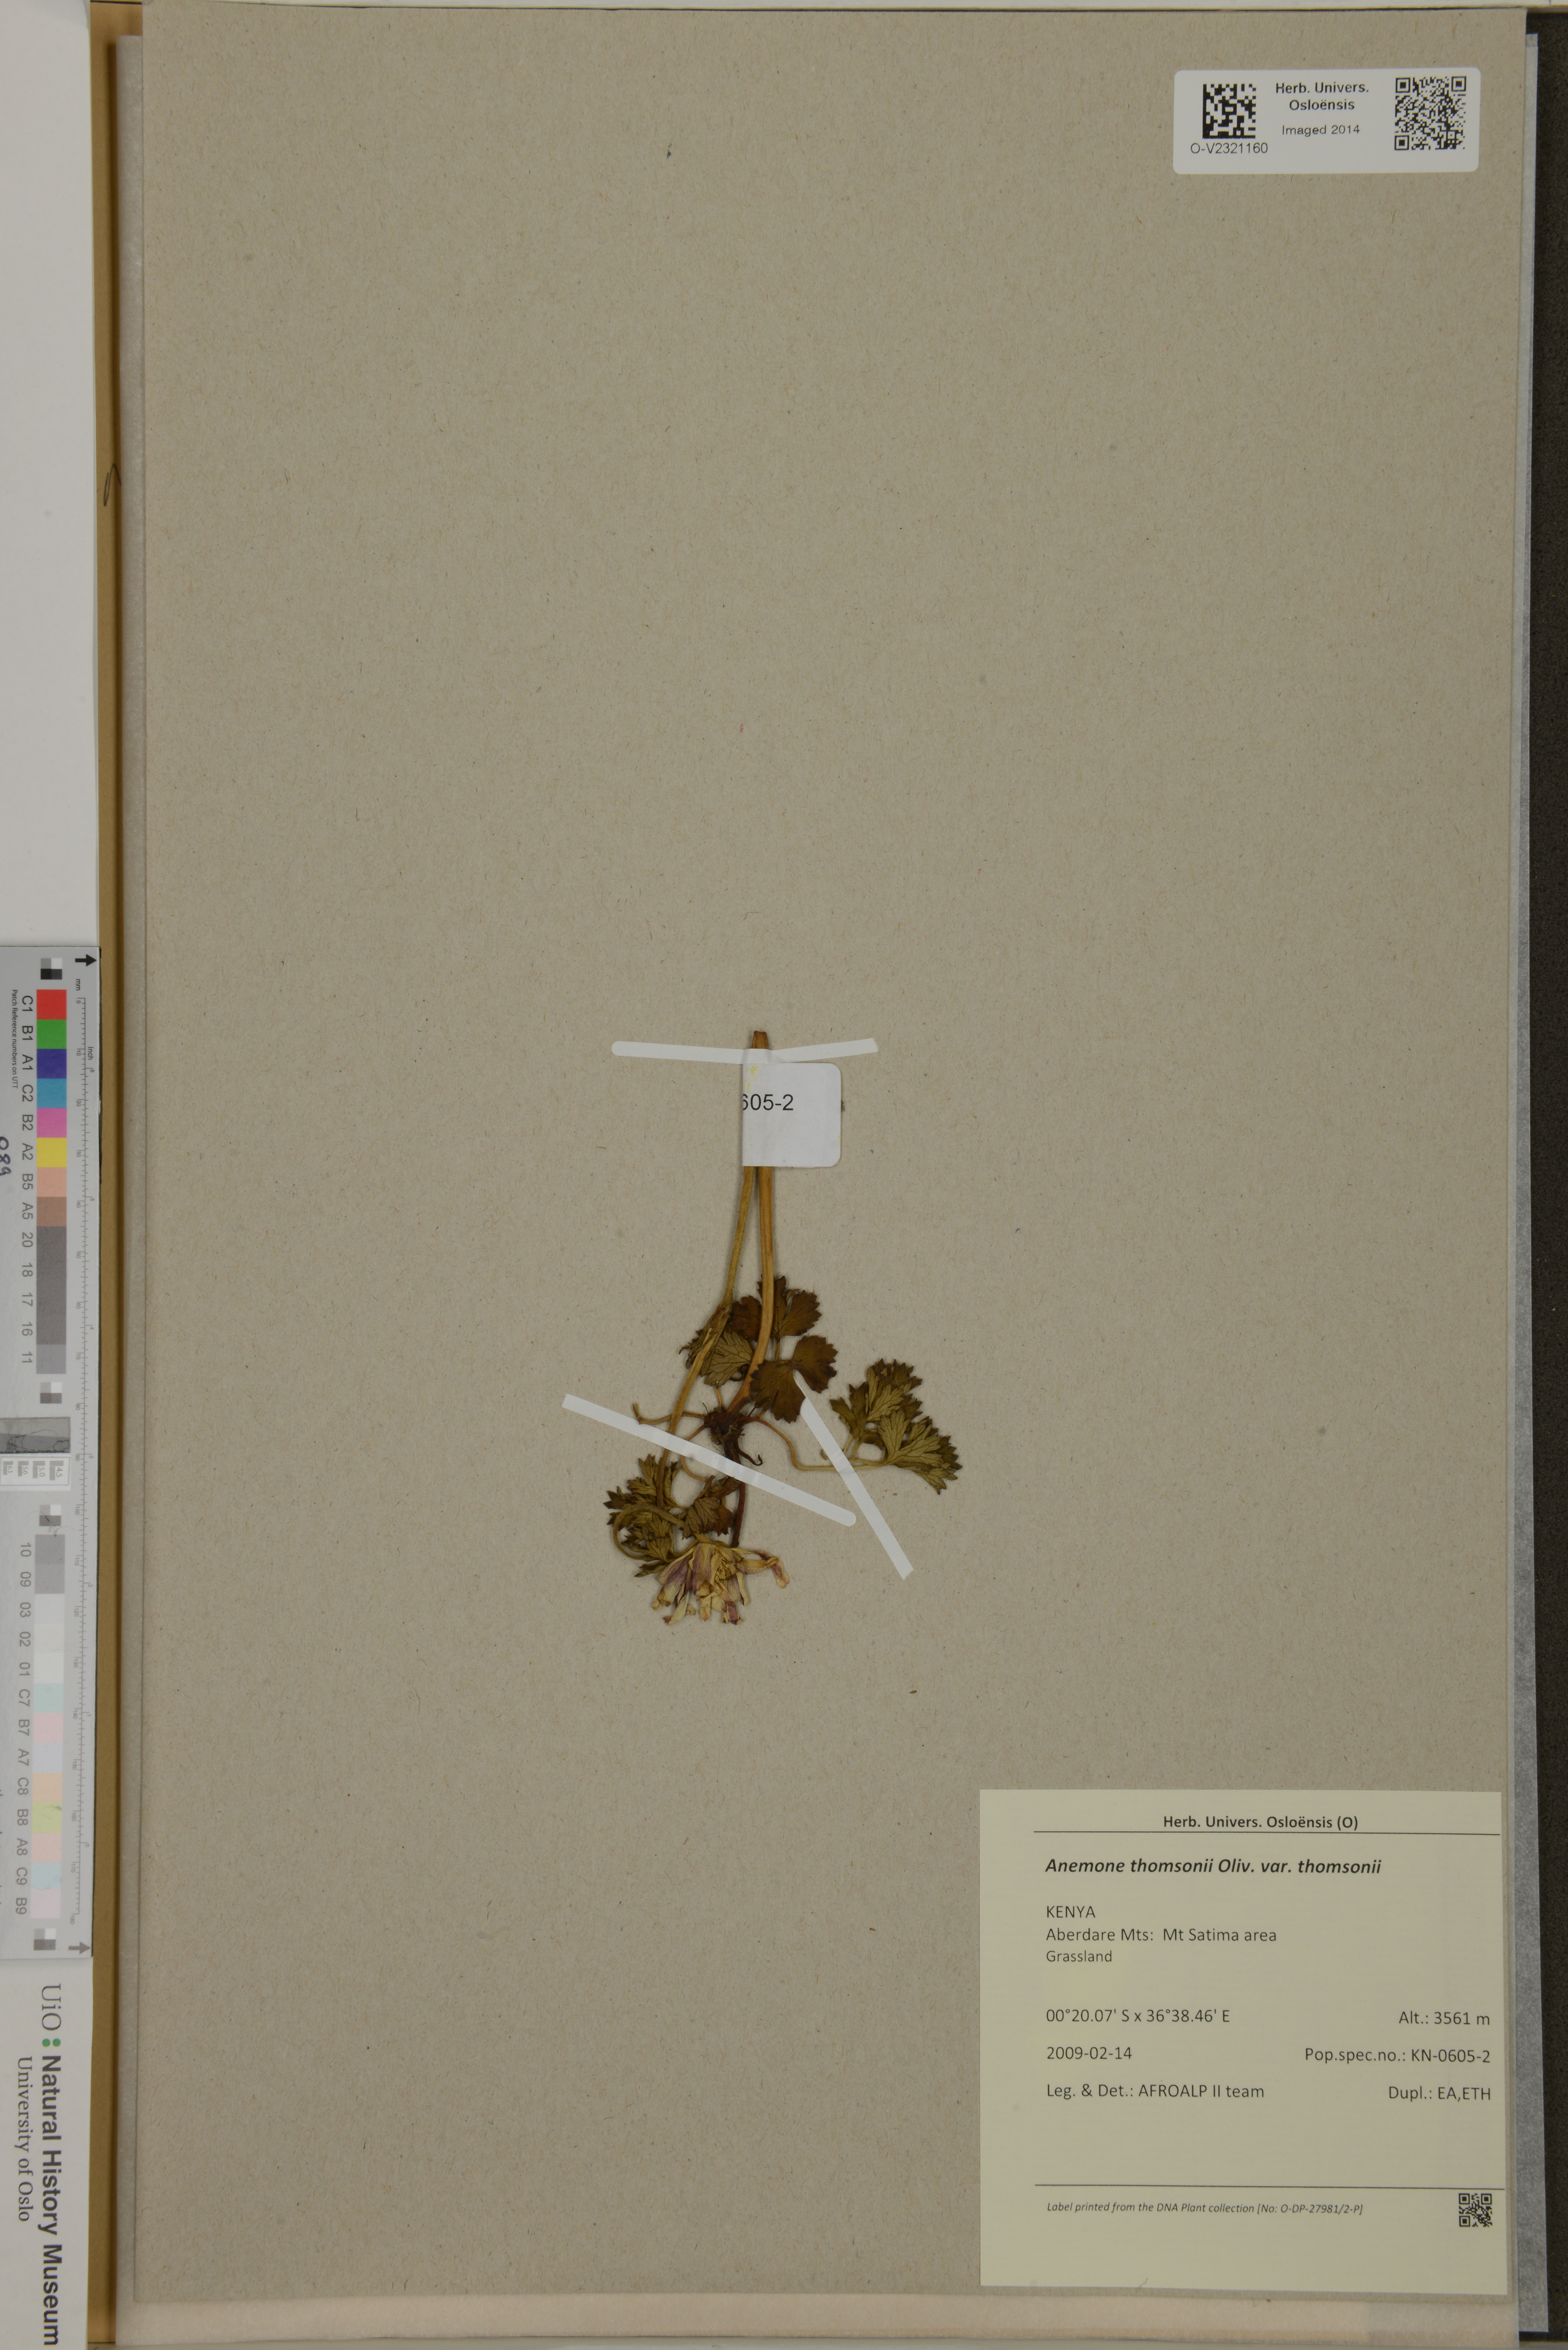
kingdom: Plantae
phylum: Tracheophyta
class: Magnoliopsida
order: Ranunculales
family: Ranunculaceae
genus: Anemone
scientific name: Anemone thomsonii
